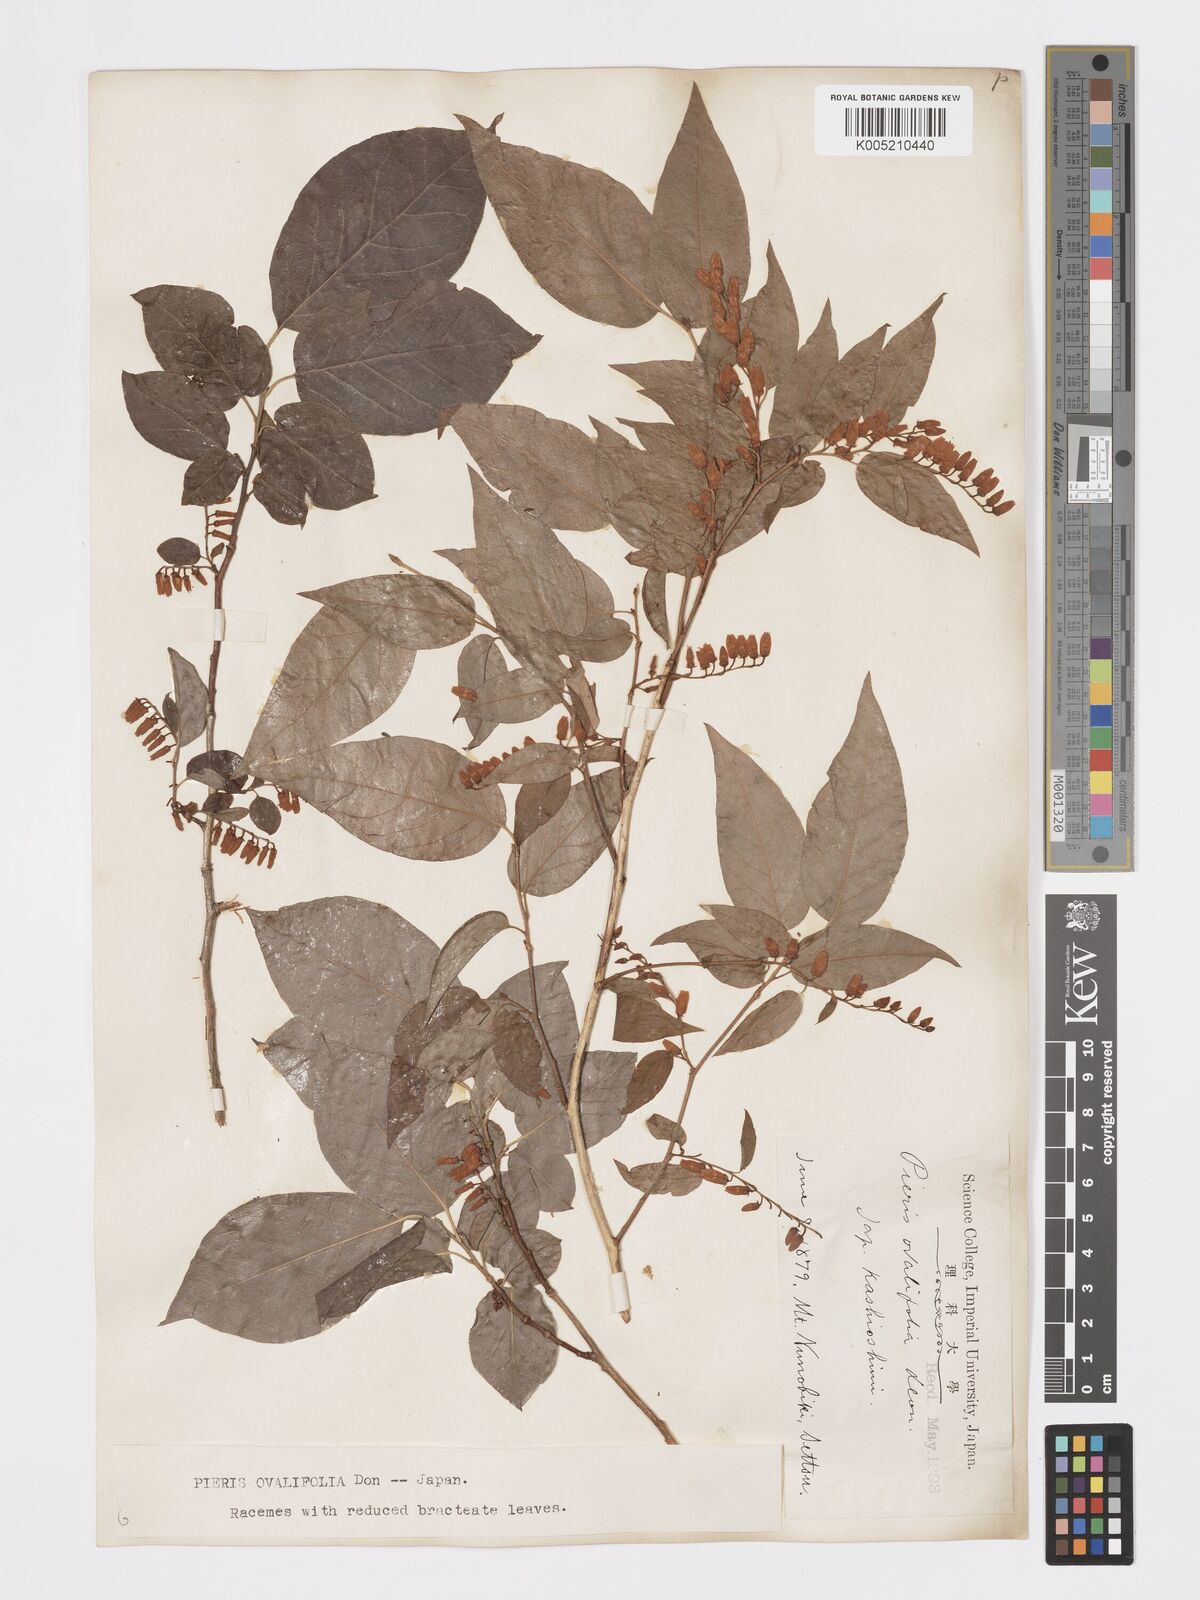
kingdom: Plantae
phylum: Tracheophyta
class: Magnoliopsida
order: Ericales
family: Ericaceae
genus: Lyonia
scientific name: Lyonia elliptica
